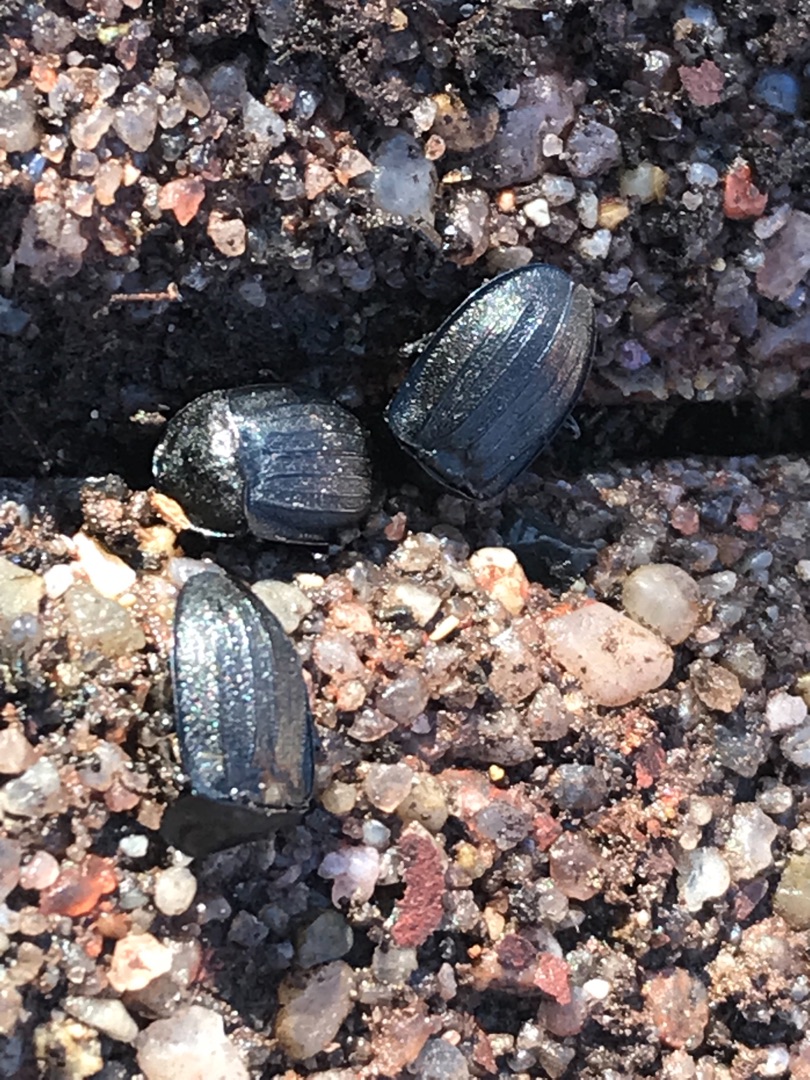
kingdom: Animalia
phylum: Arthropoda
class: Insecta
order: Coleoptera
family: Staphylinidae
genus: Silpha
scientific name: Silpha atrata
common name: Snegleådselbille
